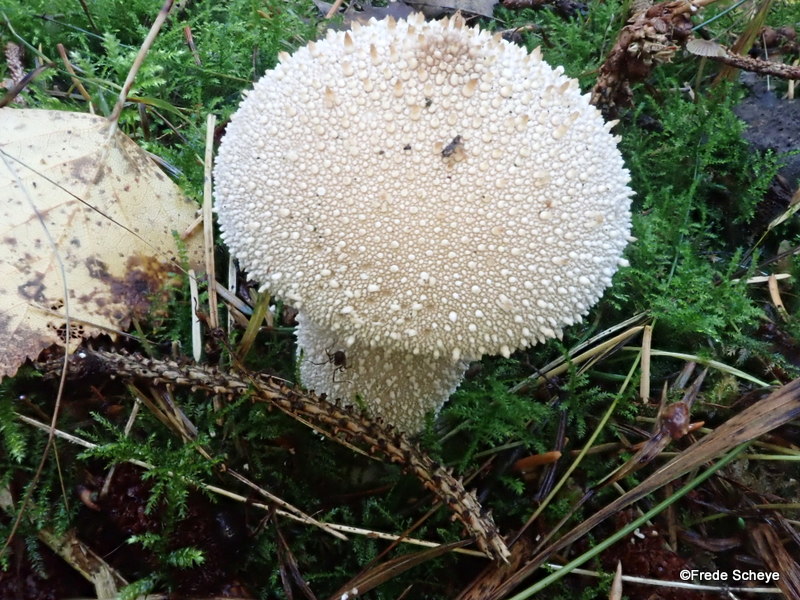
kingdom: Fungi
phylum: Basidiomycota
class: Agaricomycetes
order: Agaricales
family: Lycoperdaceae
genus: Lycoperdon
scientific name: Lycoperdon perlatum
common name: krystal-støvbold
